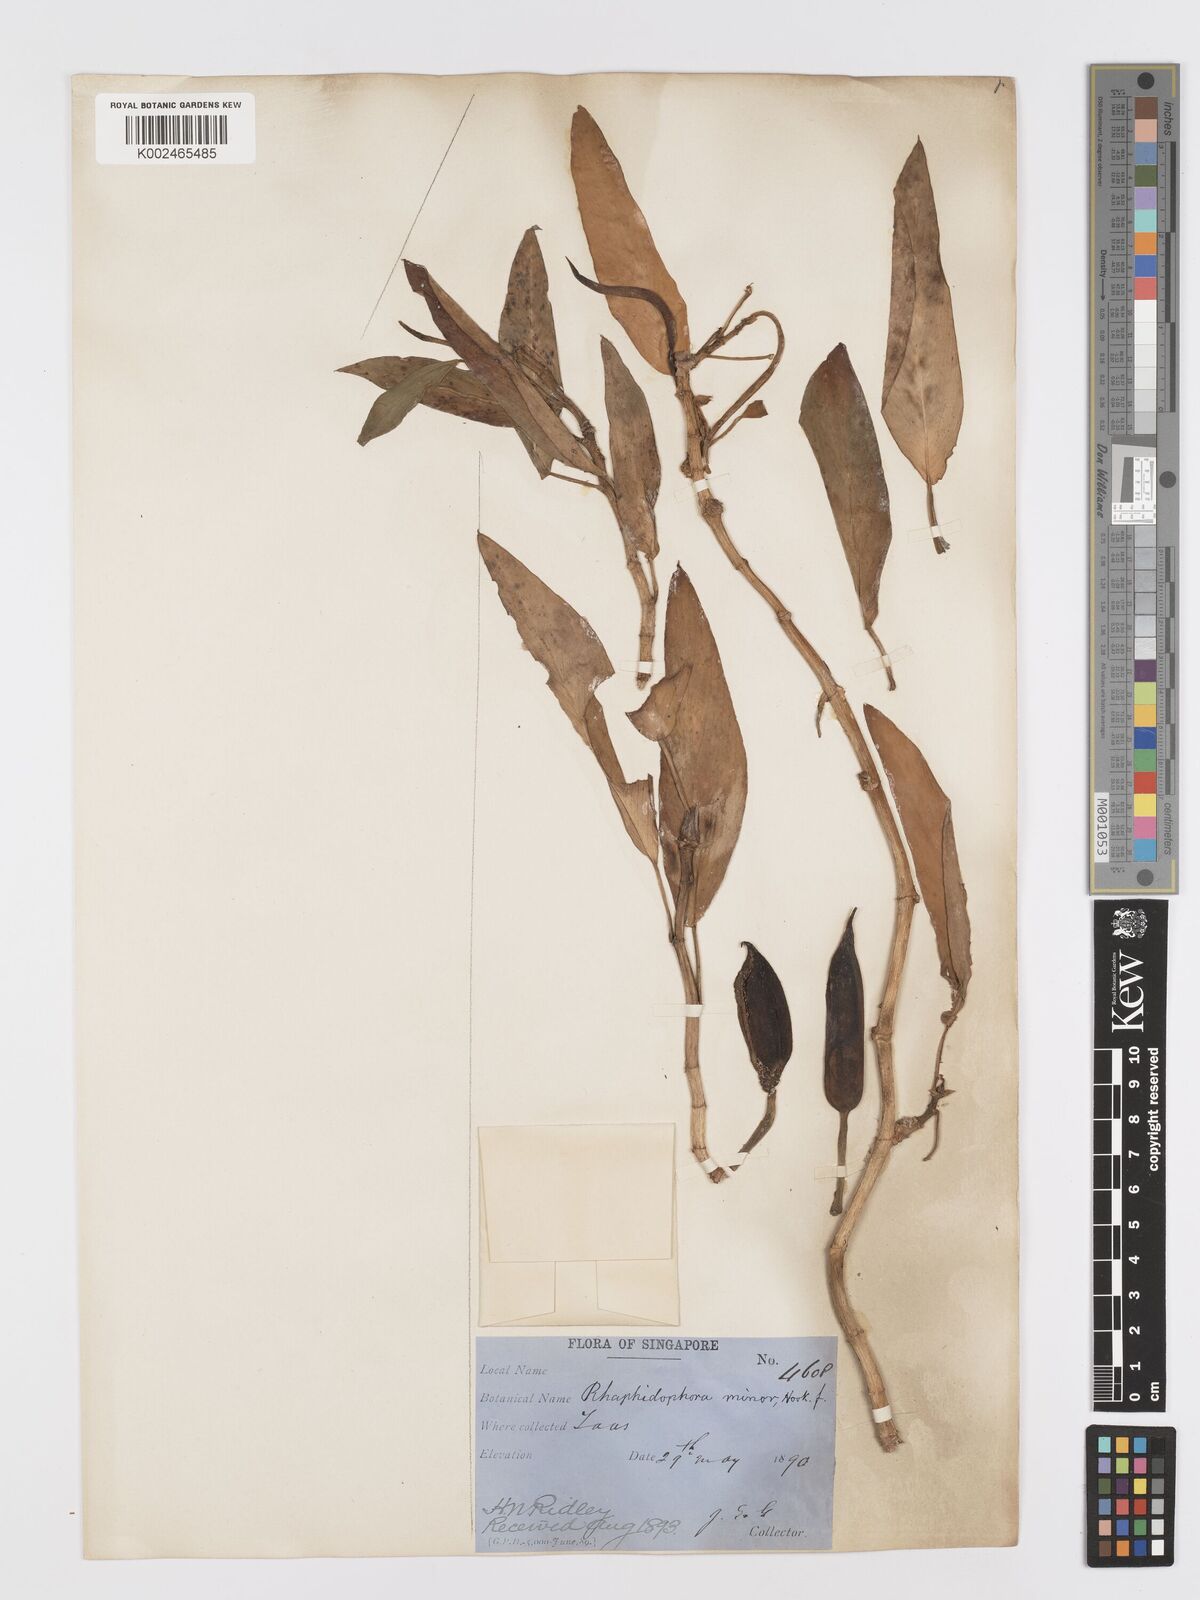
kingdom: Plantae
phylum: Tracheophyta
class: Liliopsida
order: Alismatales
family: Araceae
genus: Rhaphidophora
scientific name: Rhaphidophora minor
